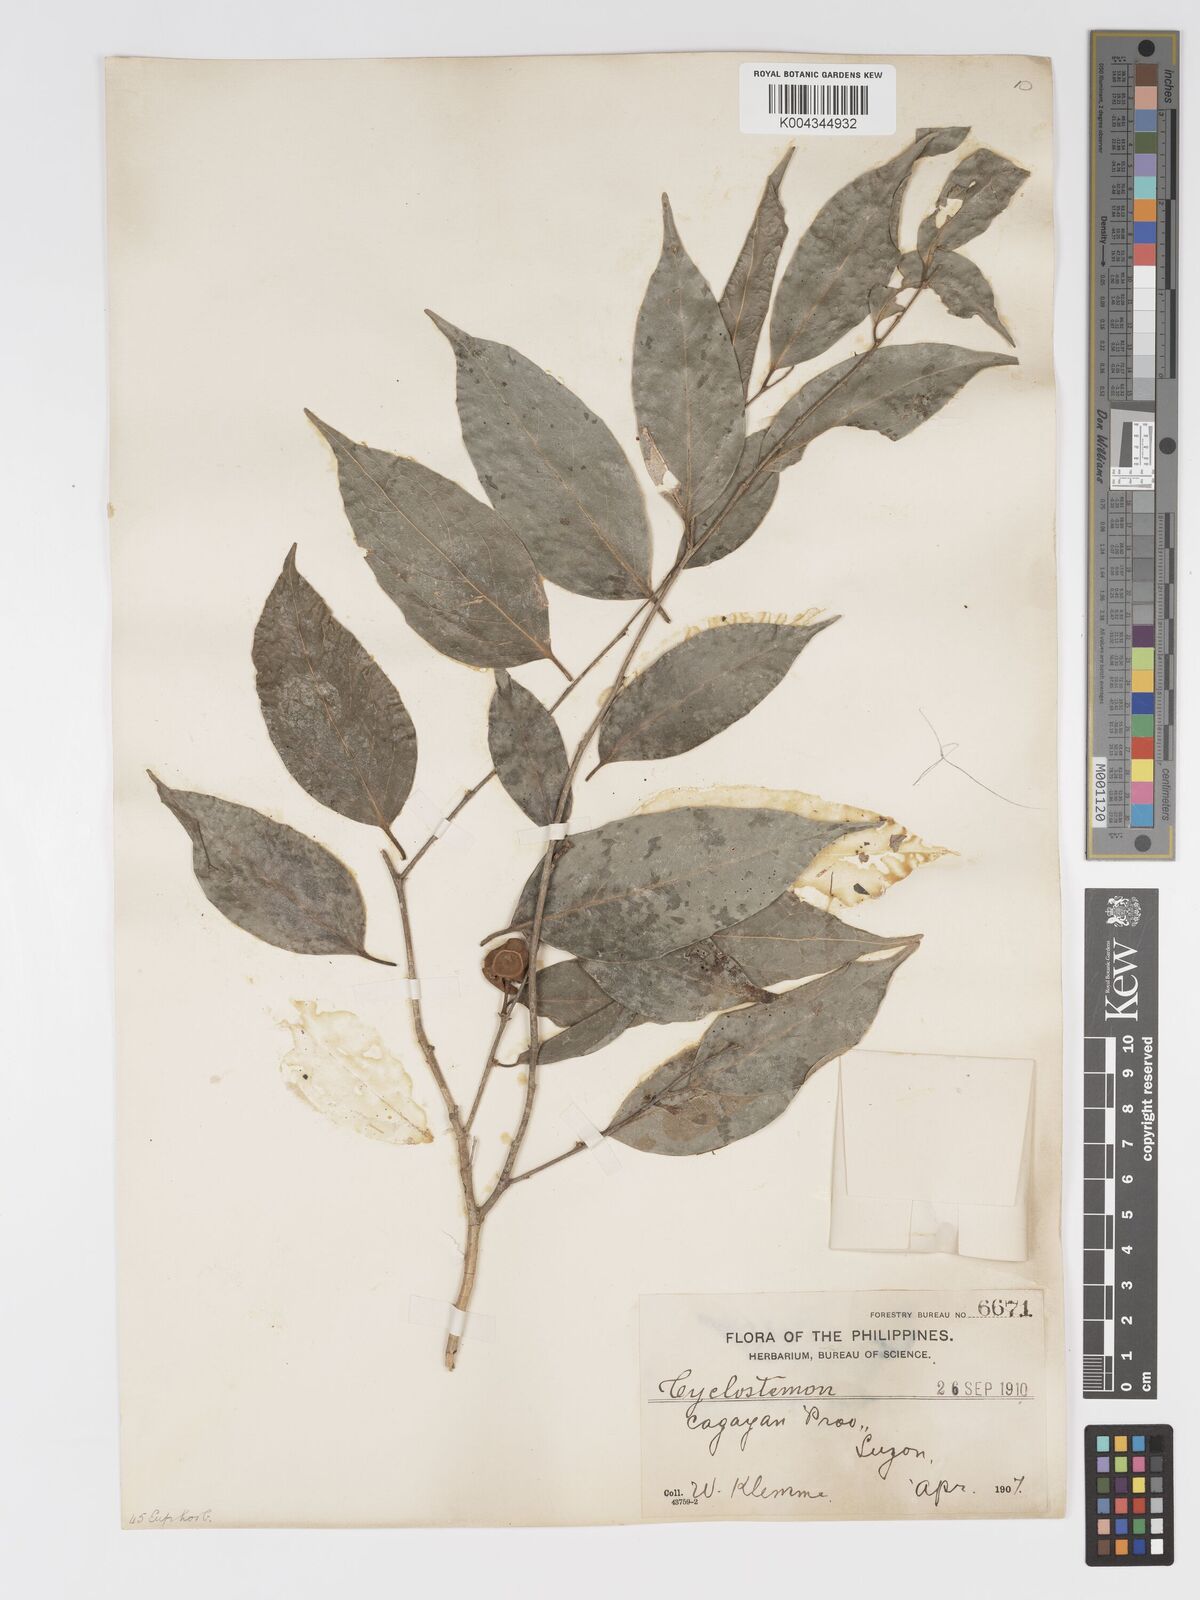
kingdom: Plantae
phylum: Tracheophyta
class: Magnoliopsida
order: Malpighiales
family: Putranjivaceae
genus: Drypetes
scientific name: Drypetes microphylla
